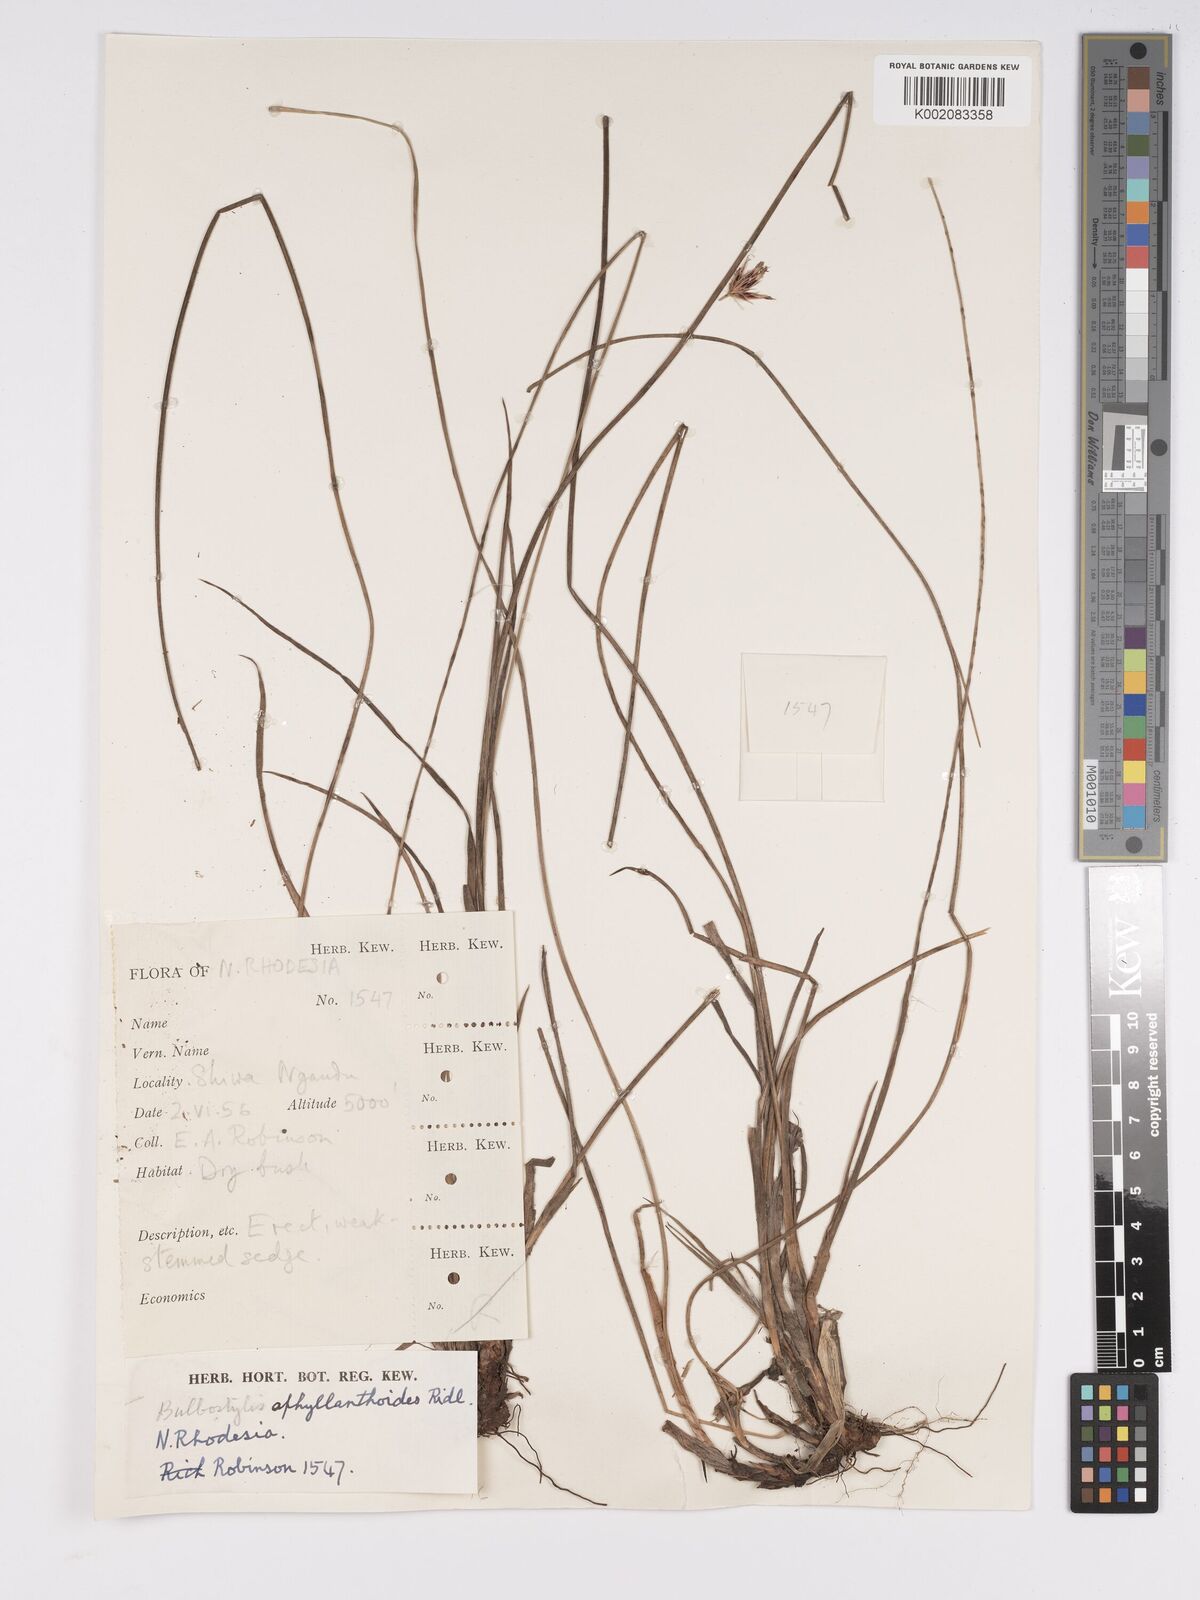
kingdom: Plantae
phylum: Tracheophyta
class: Liliopsida
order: Poales
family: Cyperaceae
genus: Bulbostylis
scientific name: Bulbostylis pilosa
